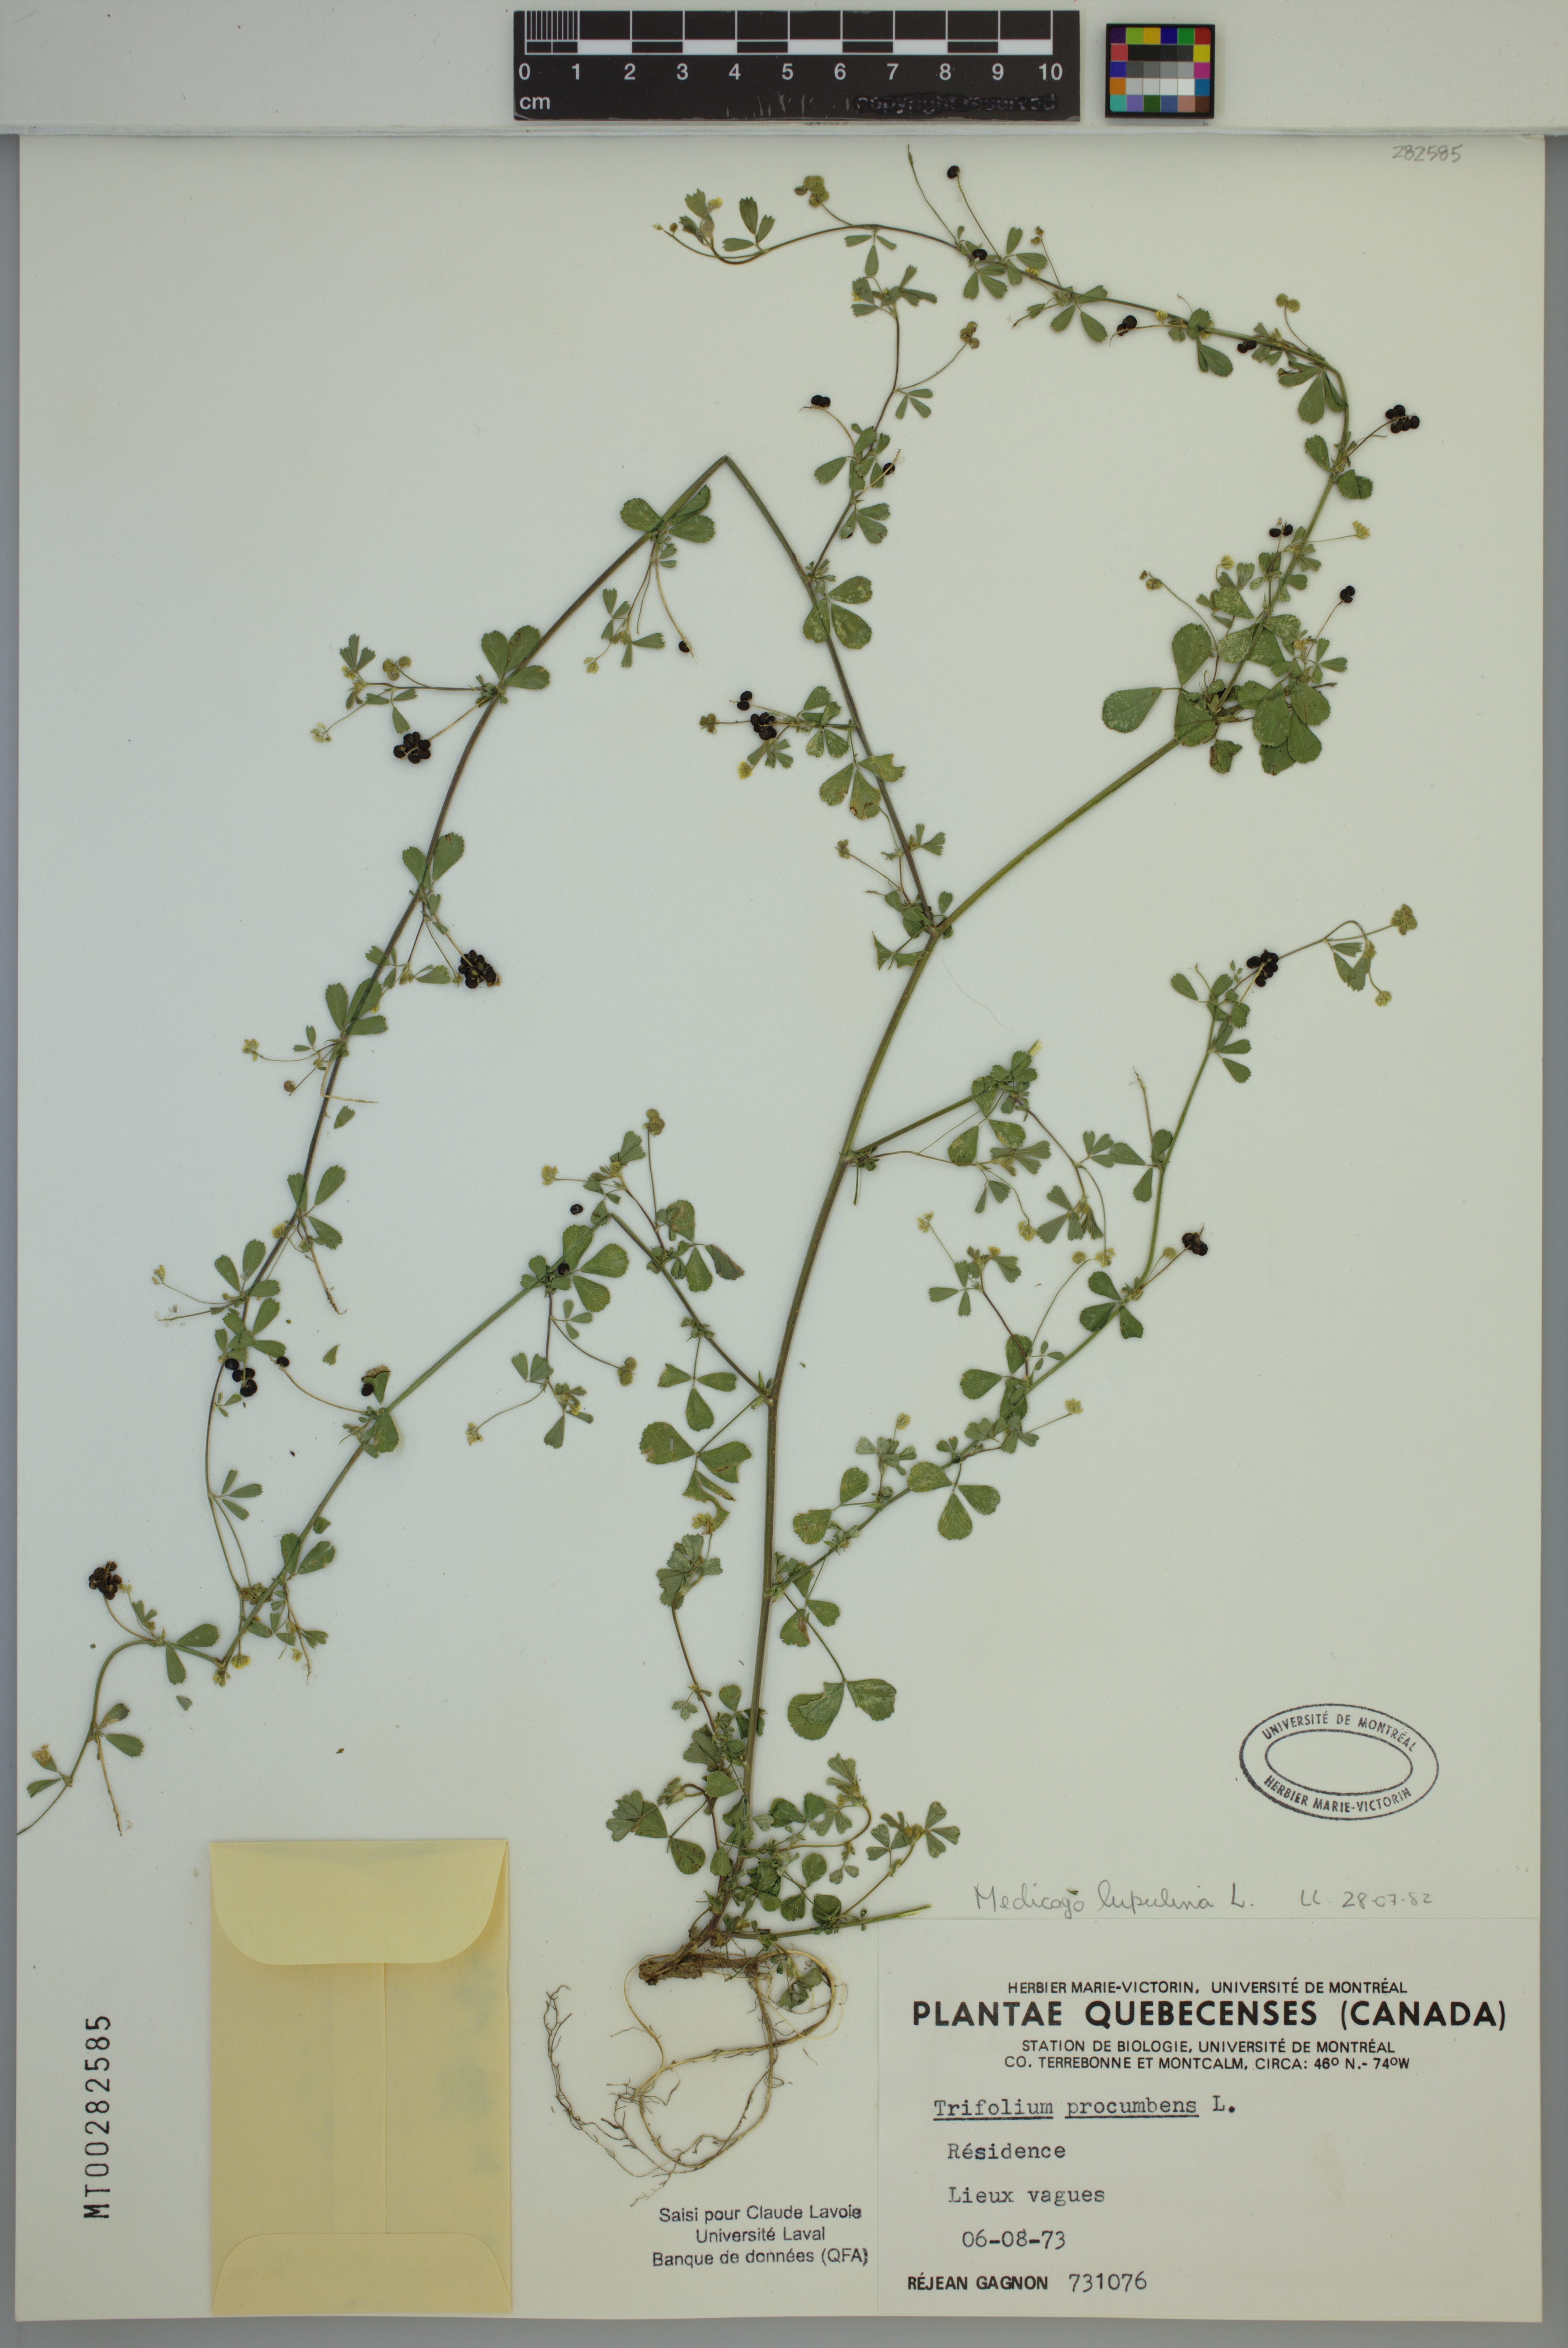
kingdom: Plantae
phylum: Tracheophyta
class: Magnoliopsida
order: Fabales
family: Fabaceae
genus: Medicago
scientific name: Medicago lupulina
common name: Black medick
